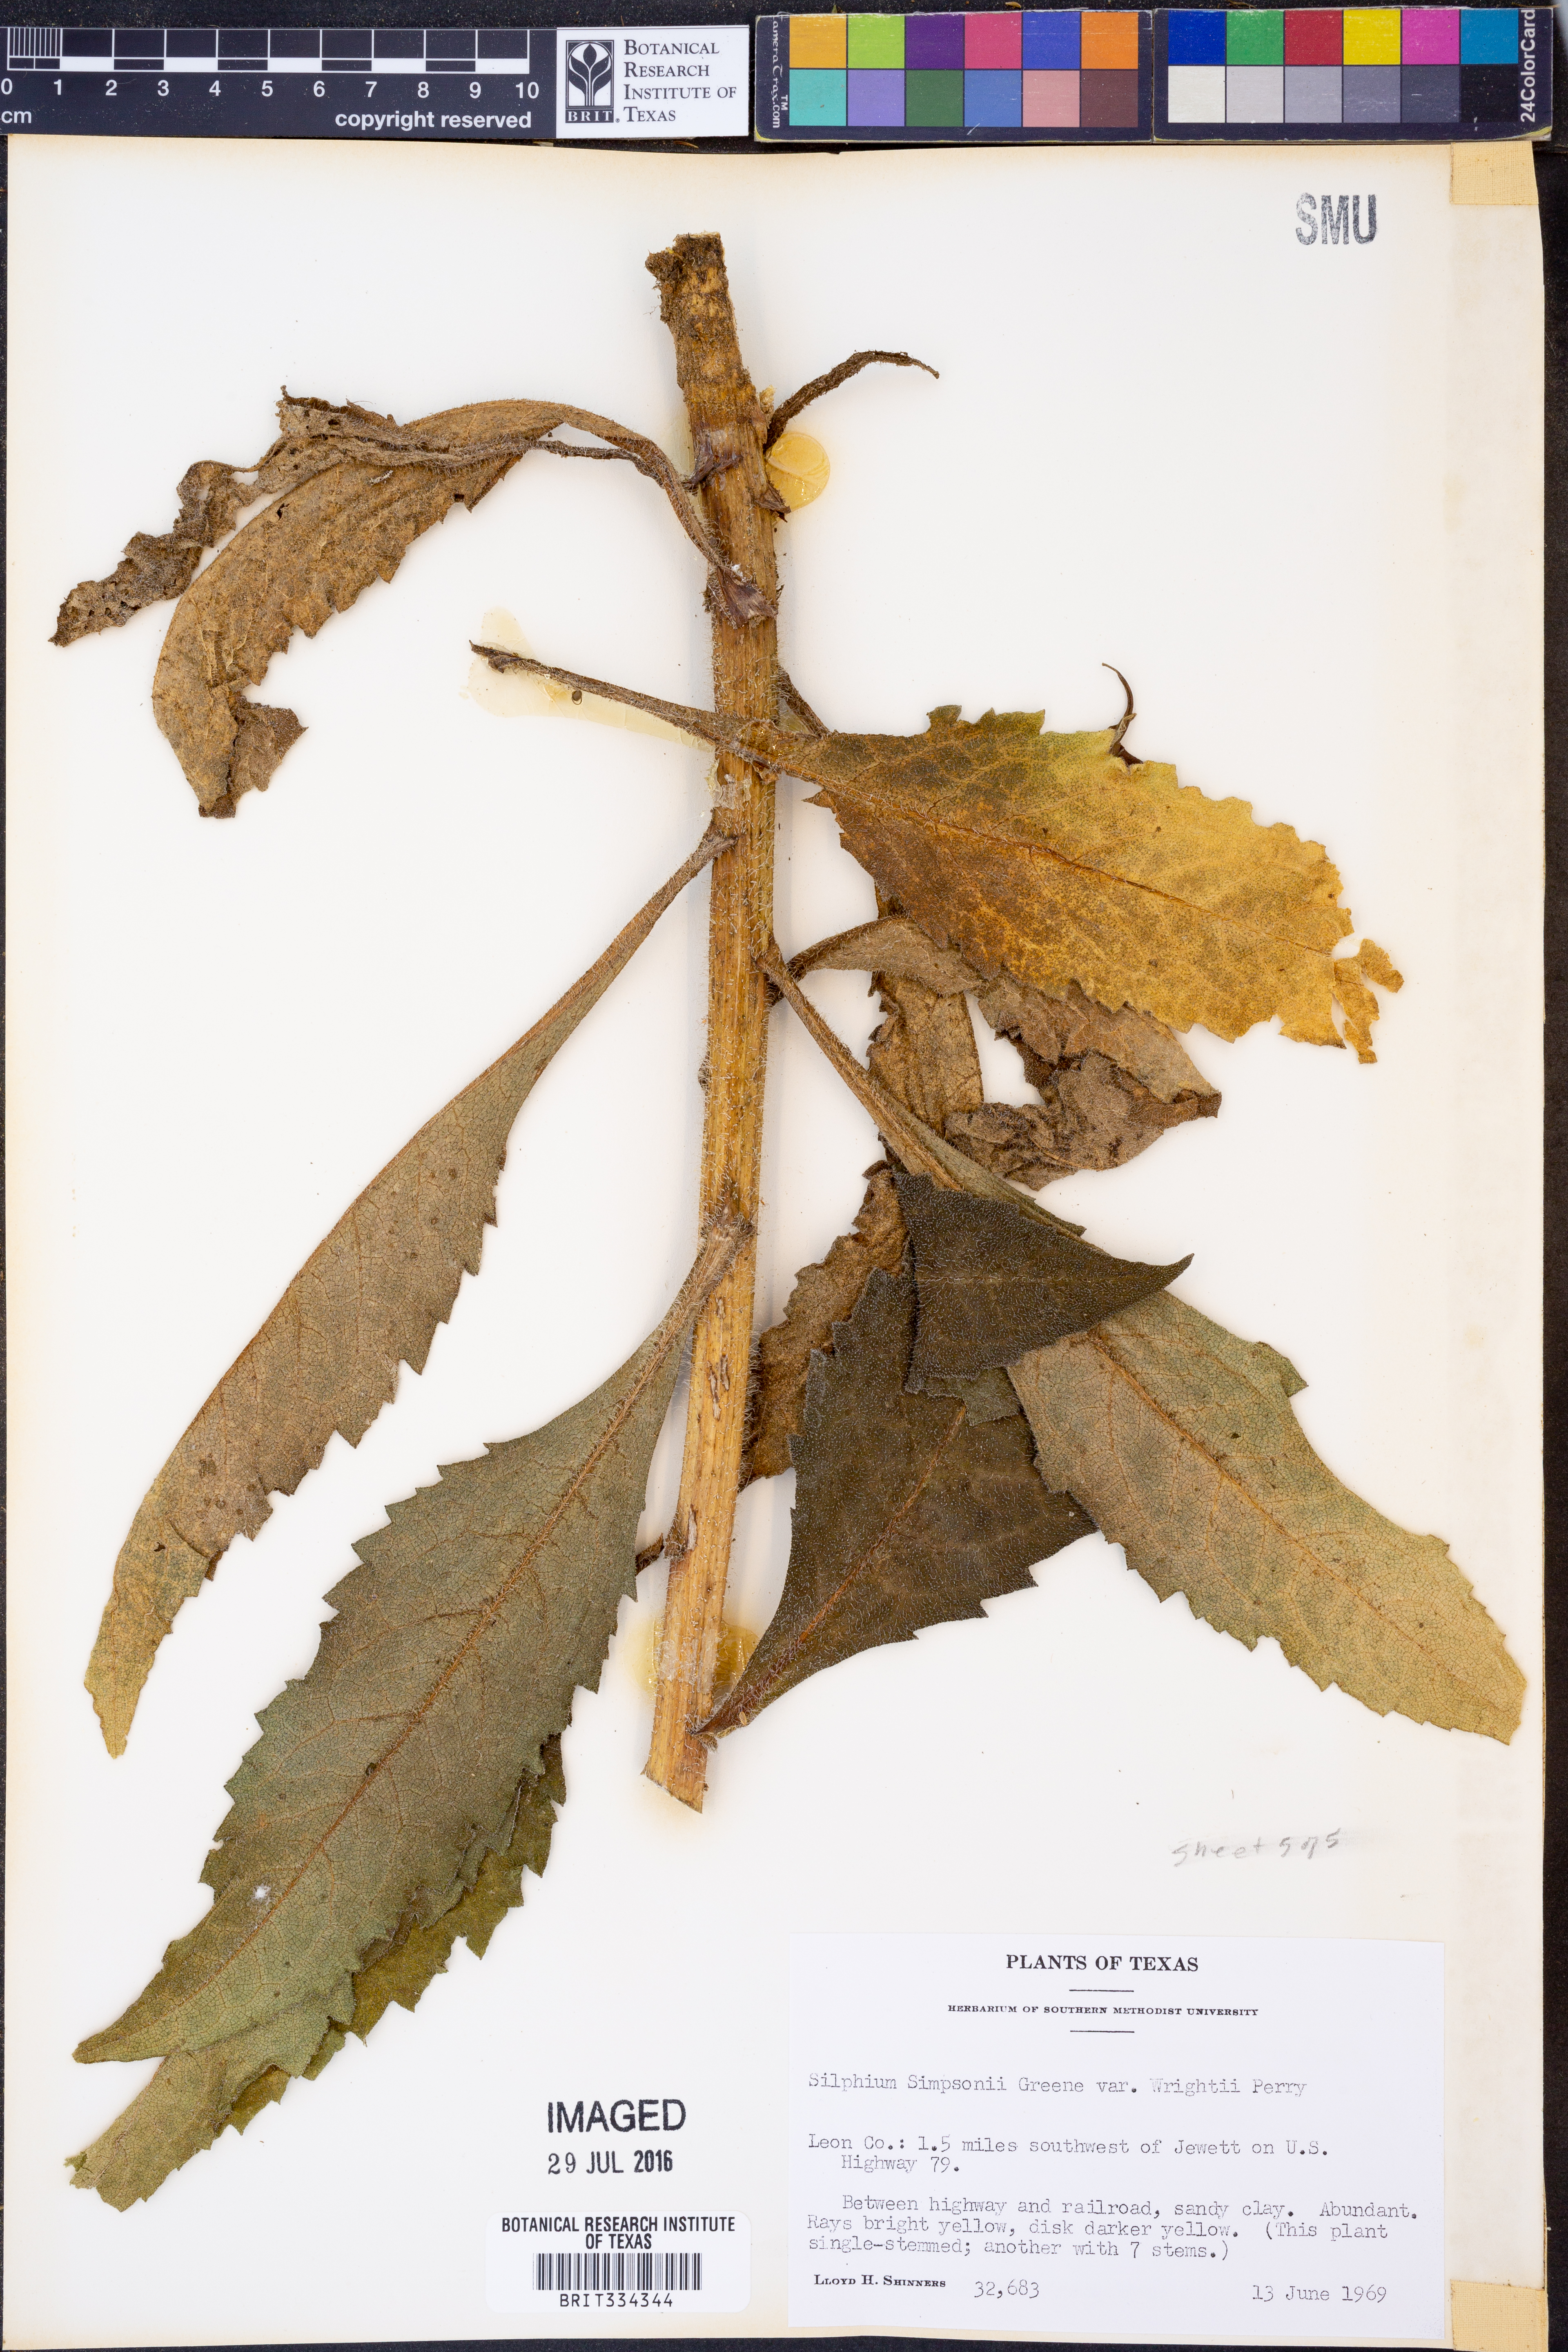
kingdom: Plantae
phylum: Tracheophyta
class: Magnoliopsida
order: Asterales
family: Asteraceae
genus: Silphium
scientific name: Silphium radula
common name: Roughleaf rosinweed
